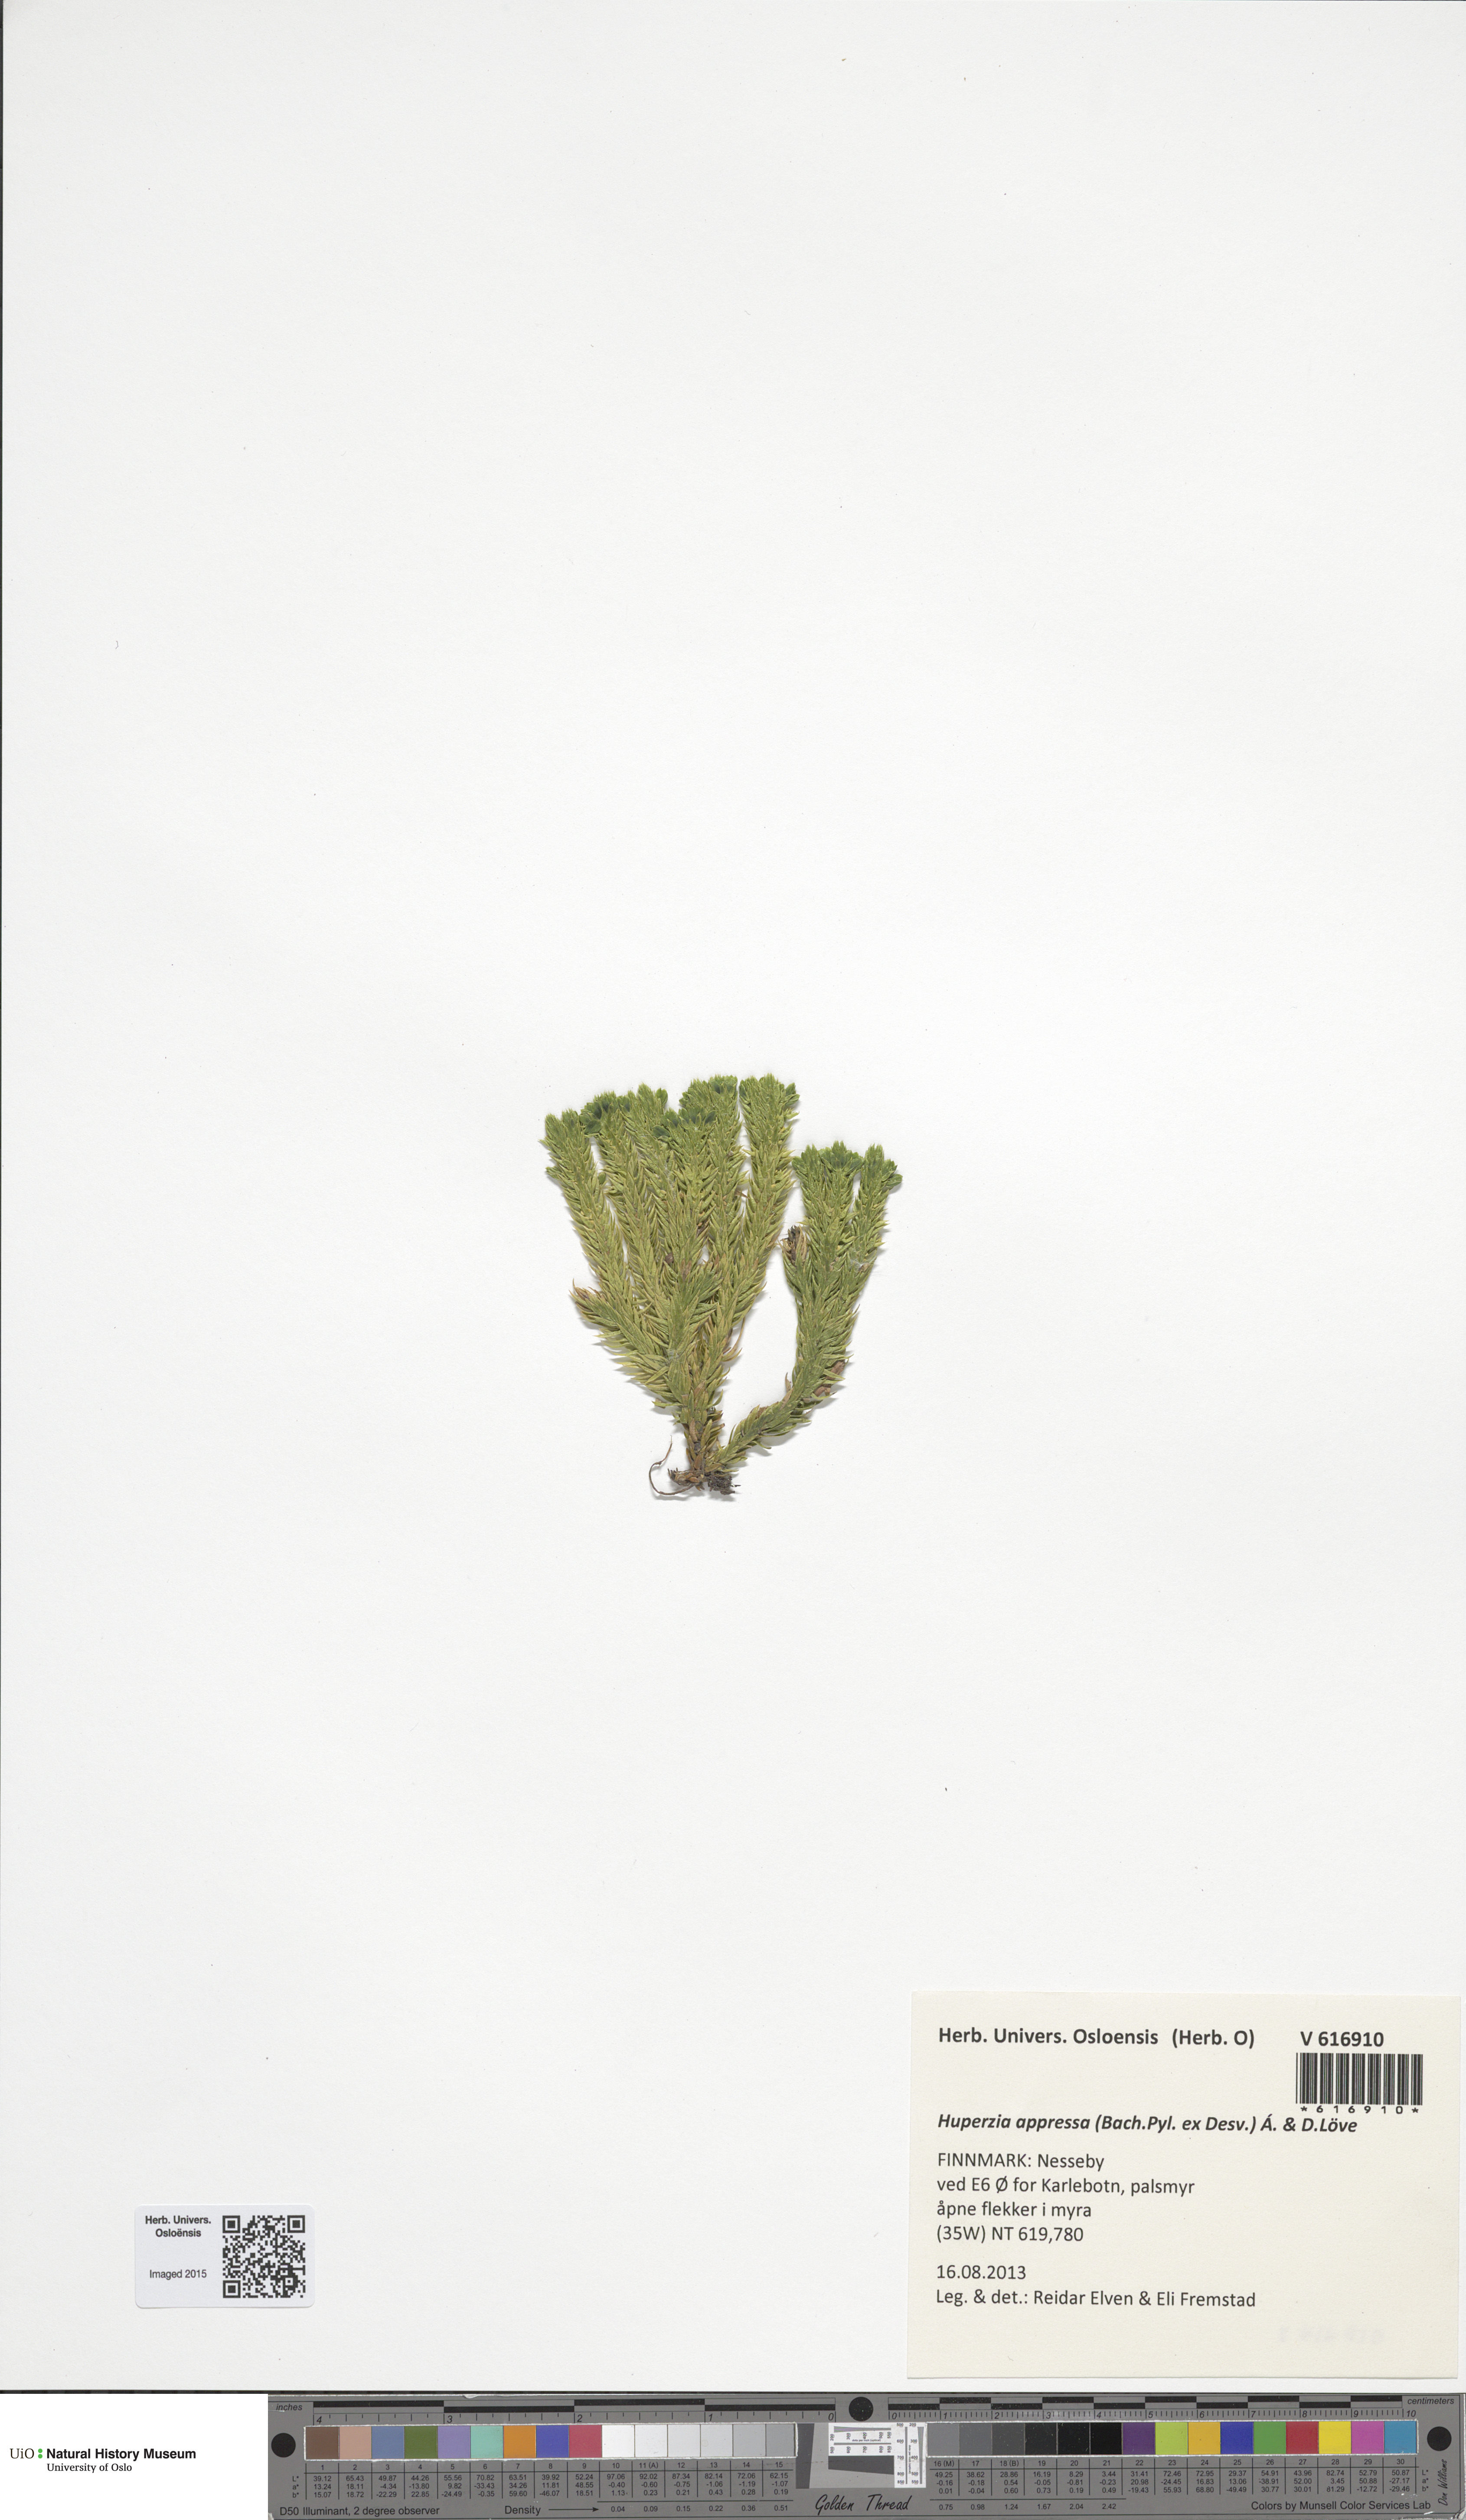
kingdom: Plantae
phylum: Tracheophyta
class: Lycopodiopsida
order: Lycopodiales
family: Lycopodiaceae
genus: Huperzia
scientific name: Huperzia selago
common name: Northern firmoss
